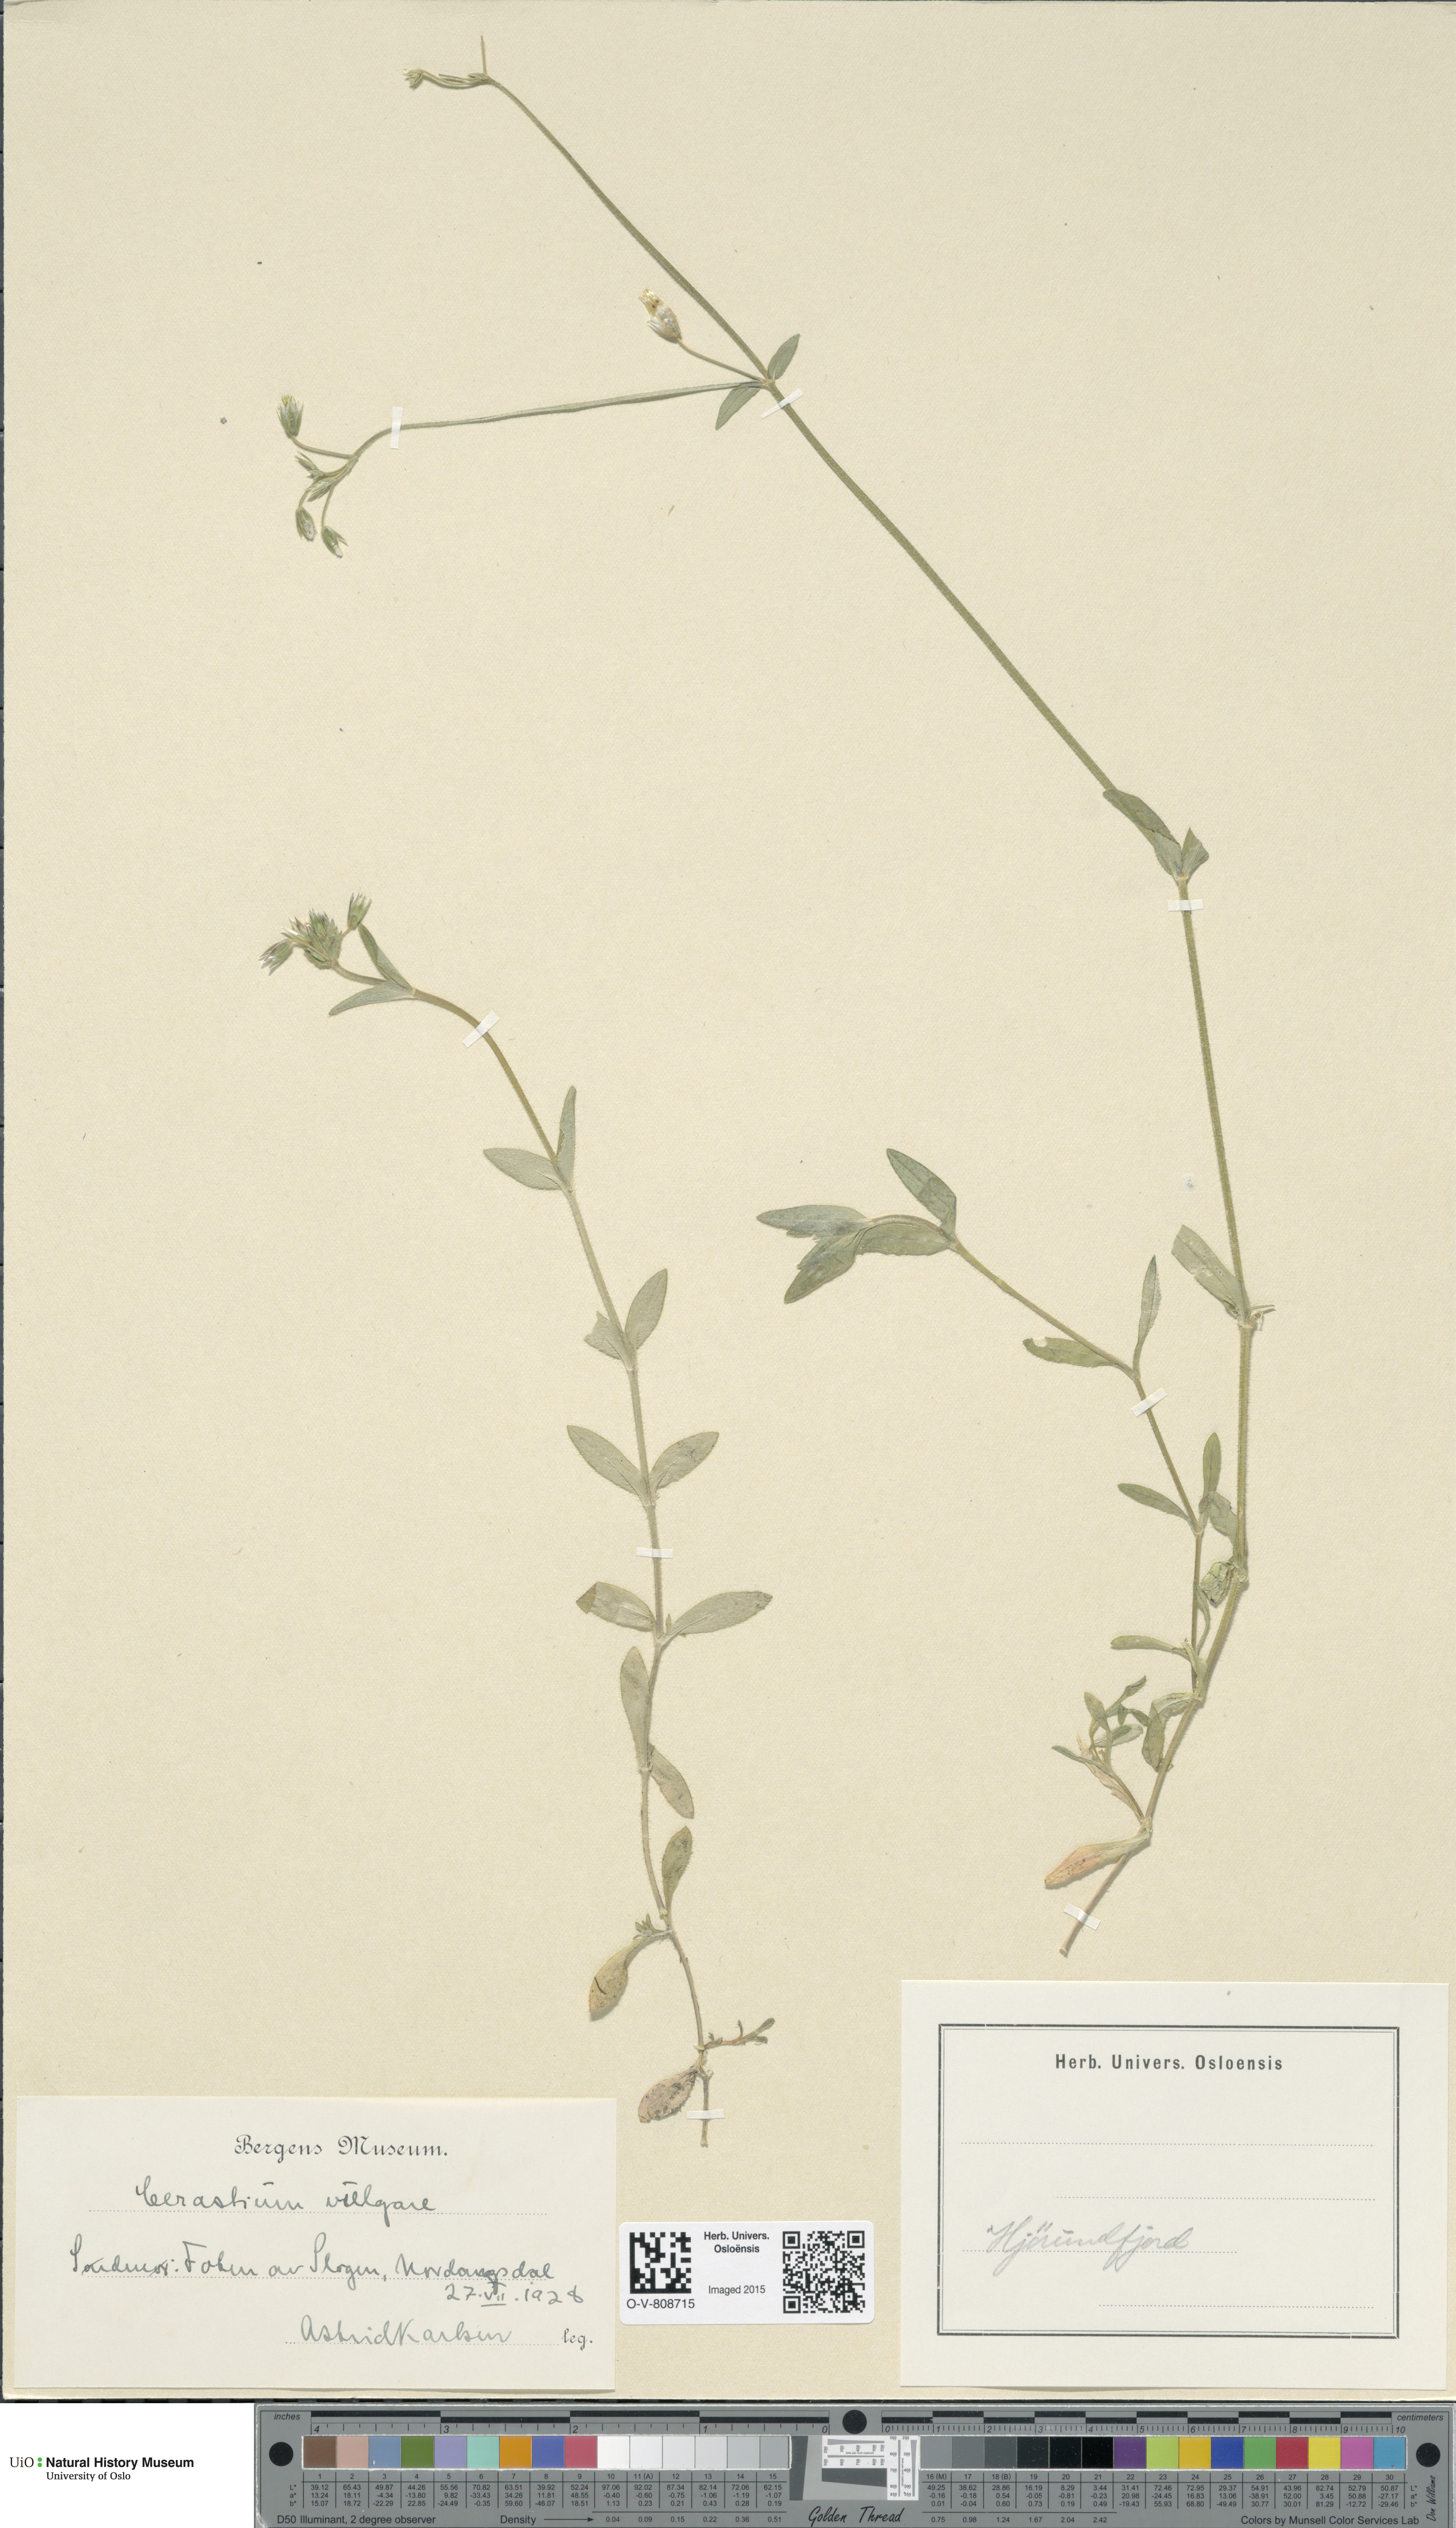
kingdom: Plantae
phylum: Tracheophyta
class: Magnoliopsida
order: Caryophyllales
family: Caryophyllaceae
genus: Cerastium
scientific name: Cerastium holosteoides
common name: Big chickweed
